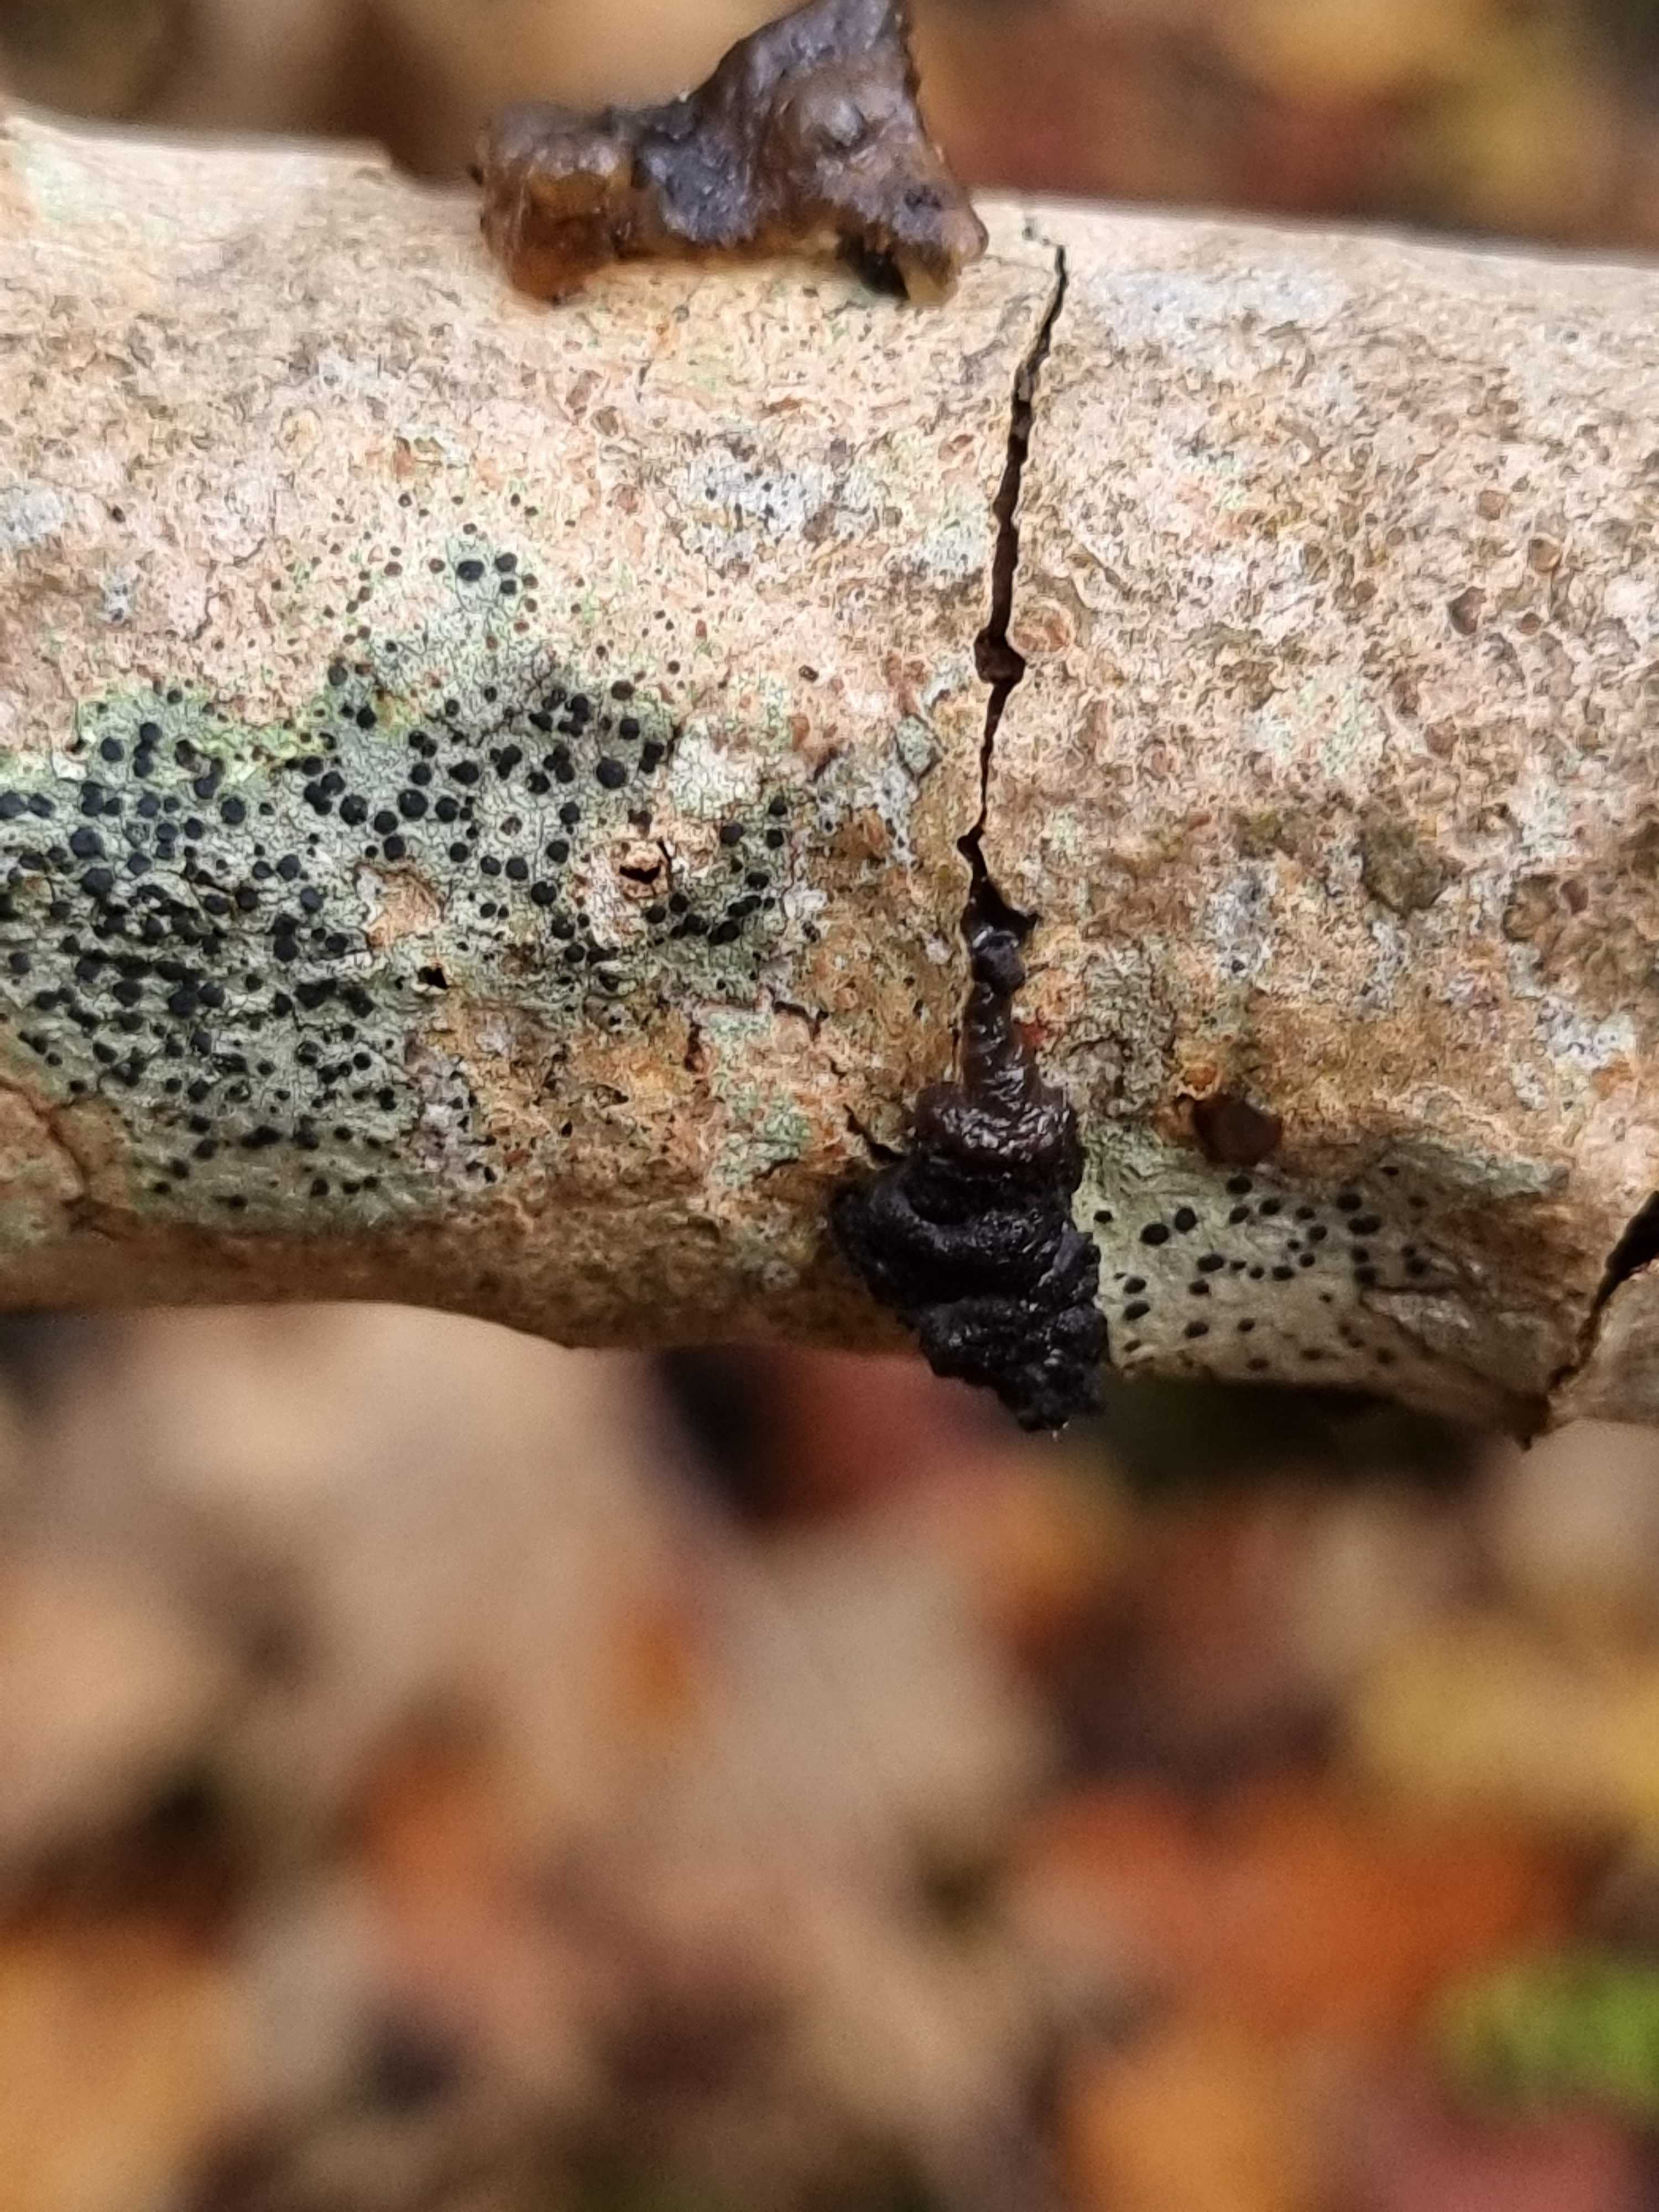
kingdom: Fungi
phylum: Basidiomycota
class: Agaricomycetes
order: Auriculariales
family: Auriculariaceae
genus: Exidia
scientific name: Exidia nigricans
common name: almindelig bævretop
